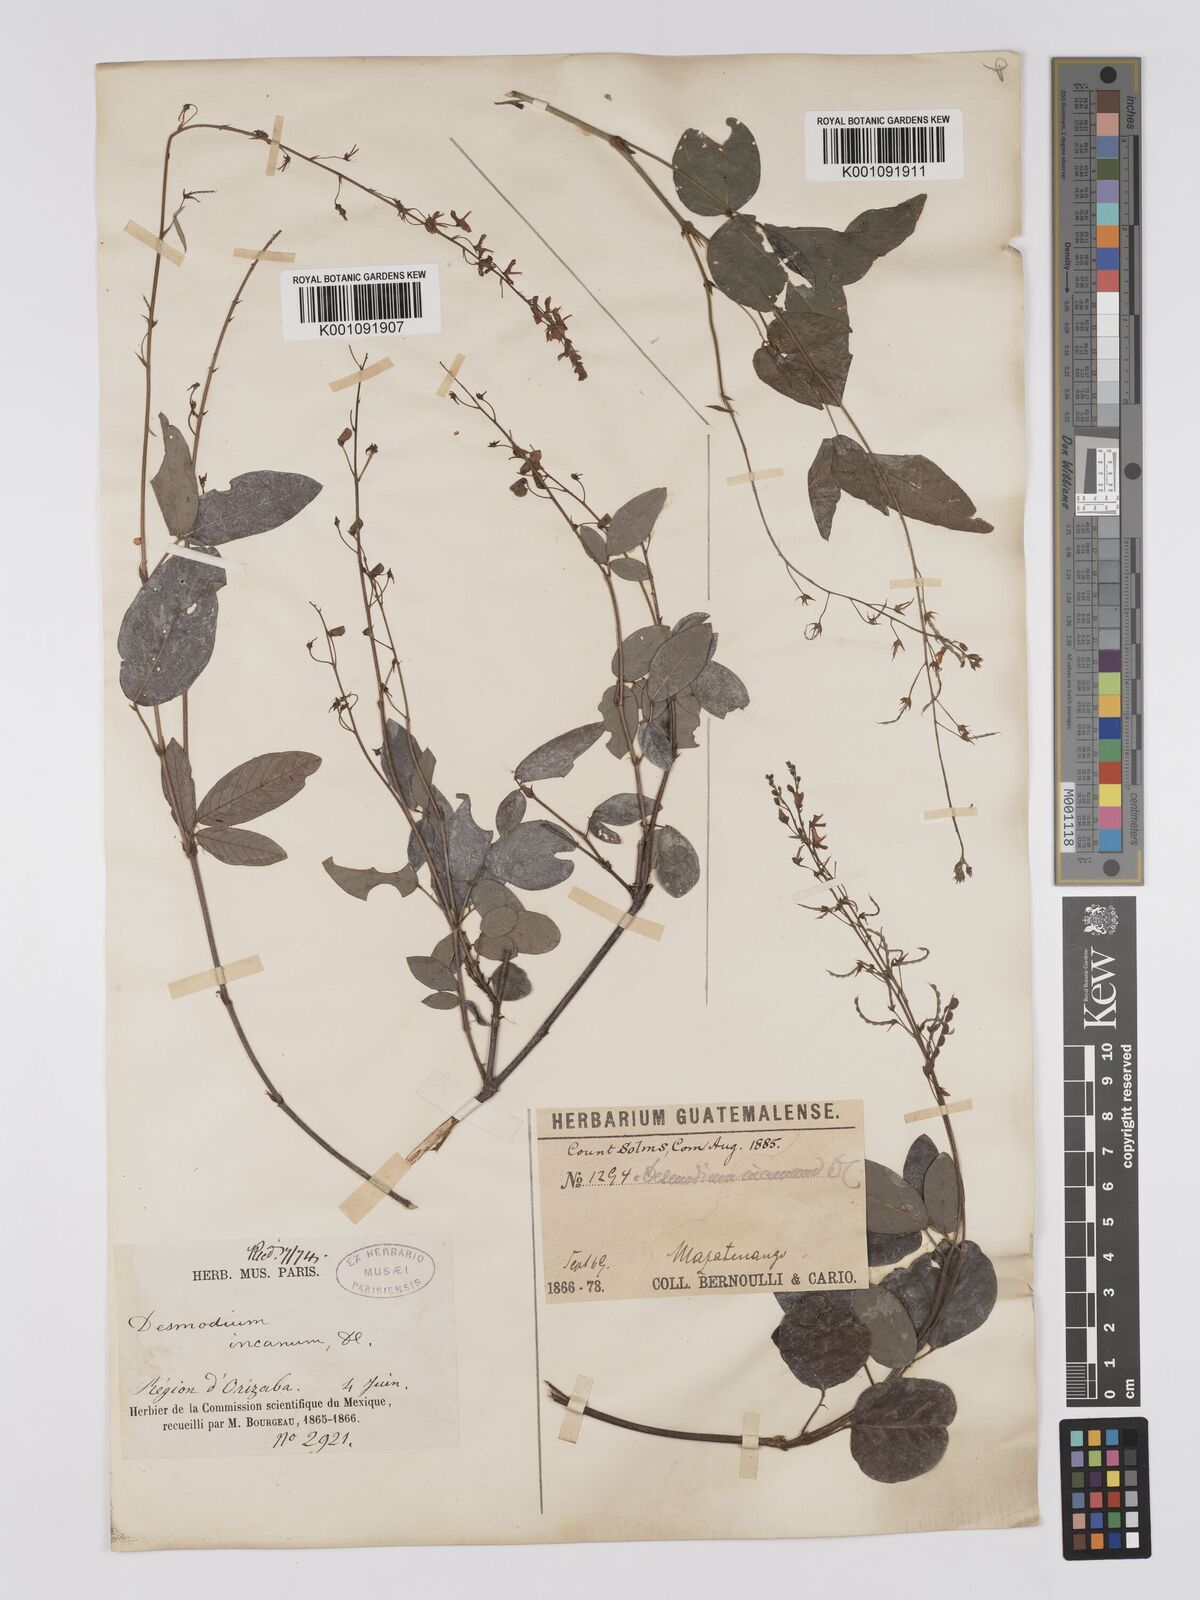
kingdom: Plantae
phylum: Tracheophyta
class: Magnoliopsida
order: Fabales
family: Fabaceae
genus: Desmodium
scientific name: Desmodium incanum
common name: Tickclover
